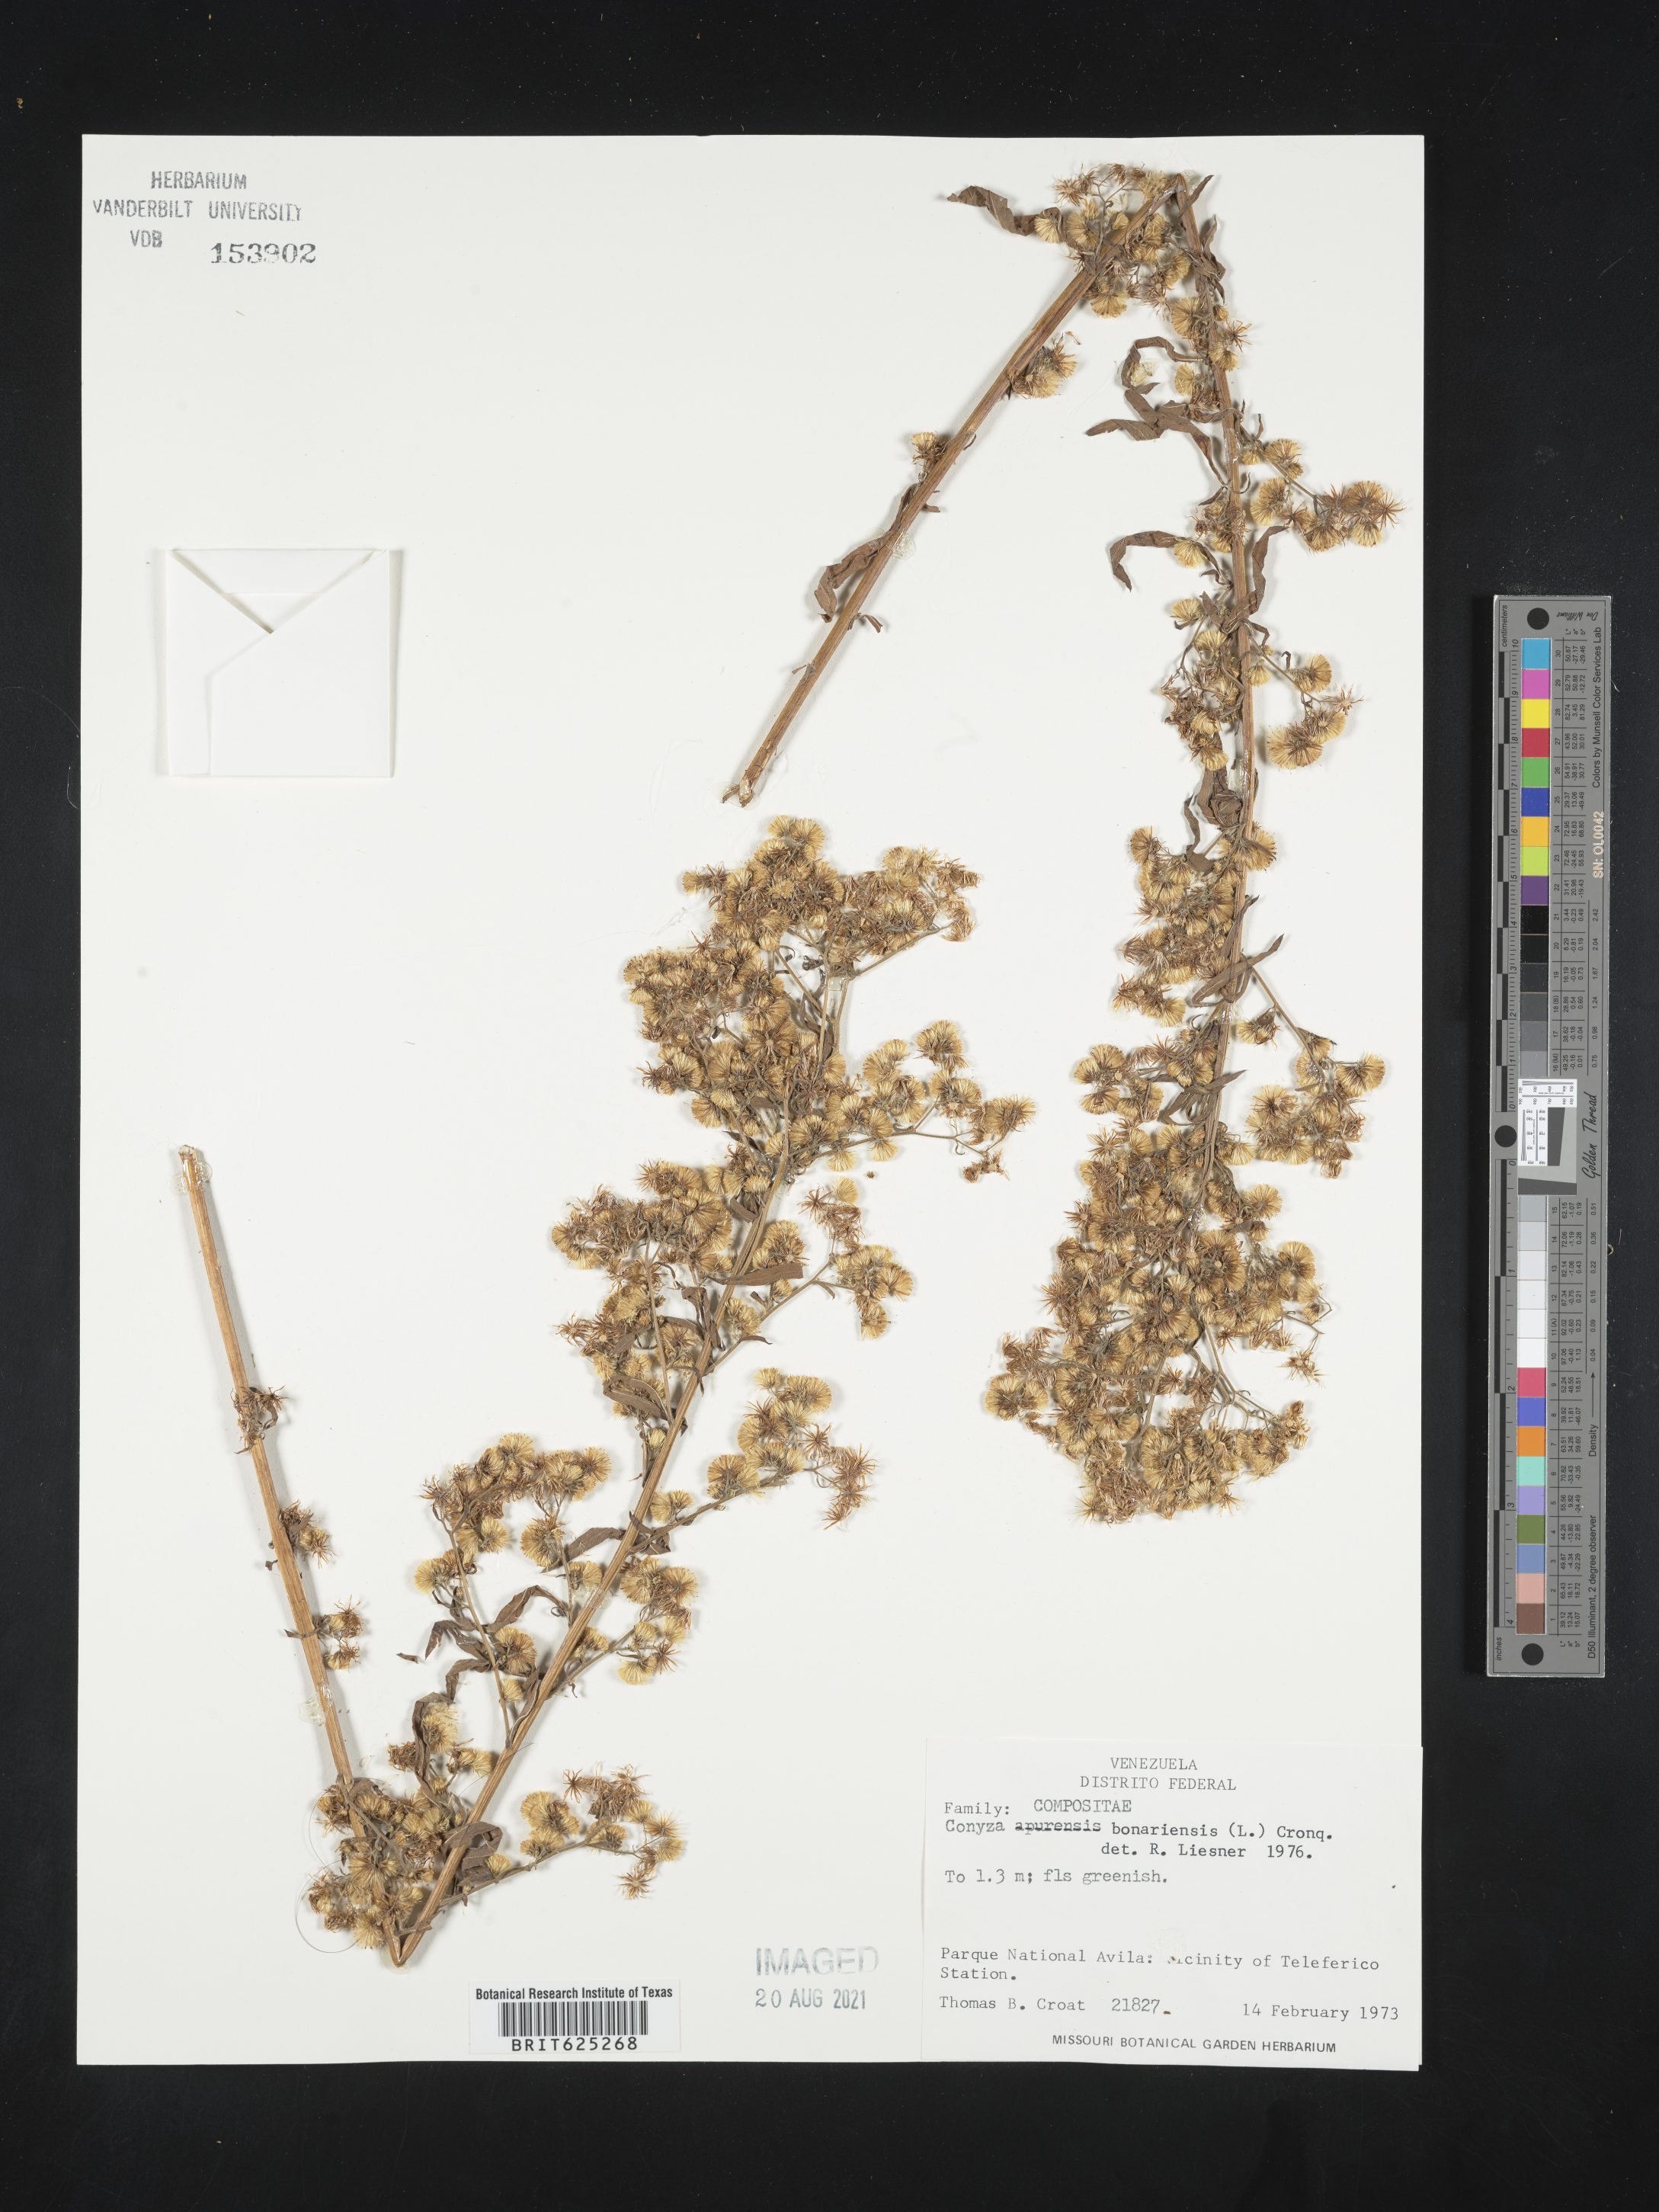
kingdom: Plantae
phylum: Tracheophyta
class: Magnoliopsida
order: Asterales
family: Asteraceae
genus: Erigeron
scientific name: Erigeron bonariensis
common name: Argentine fleabane
